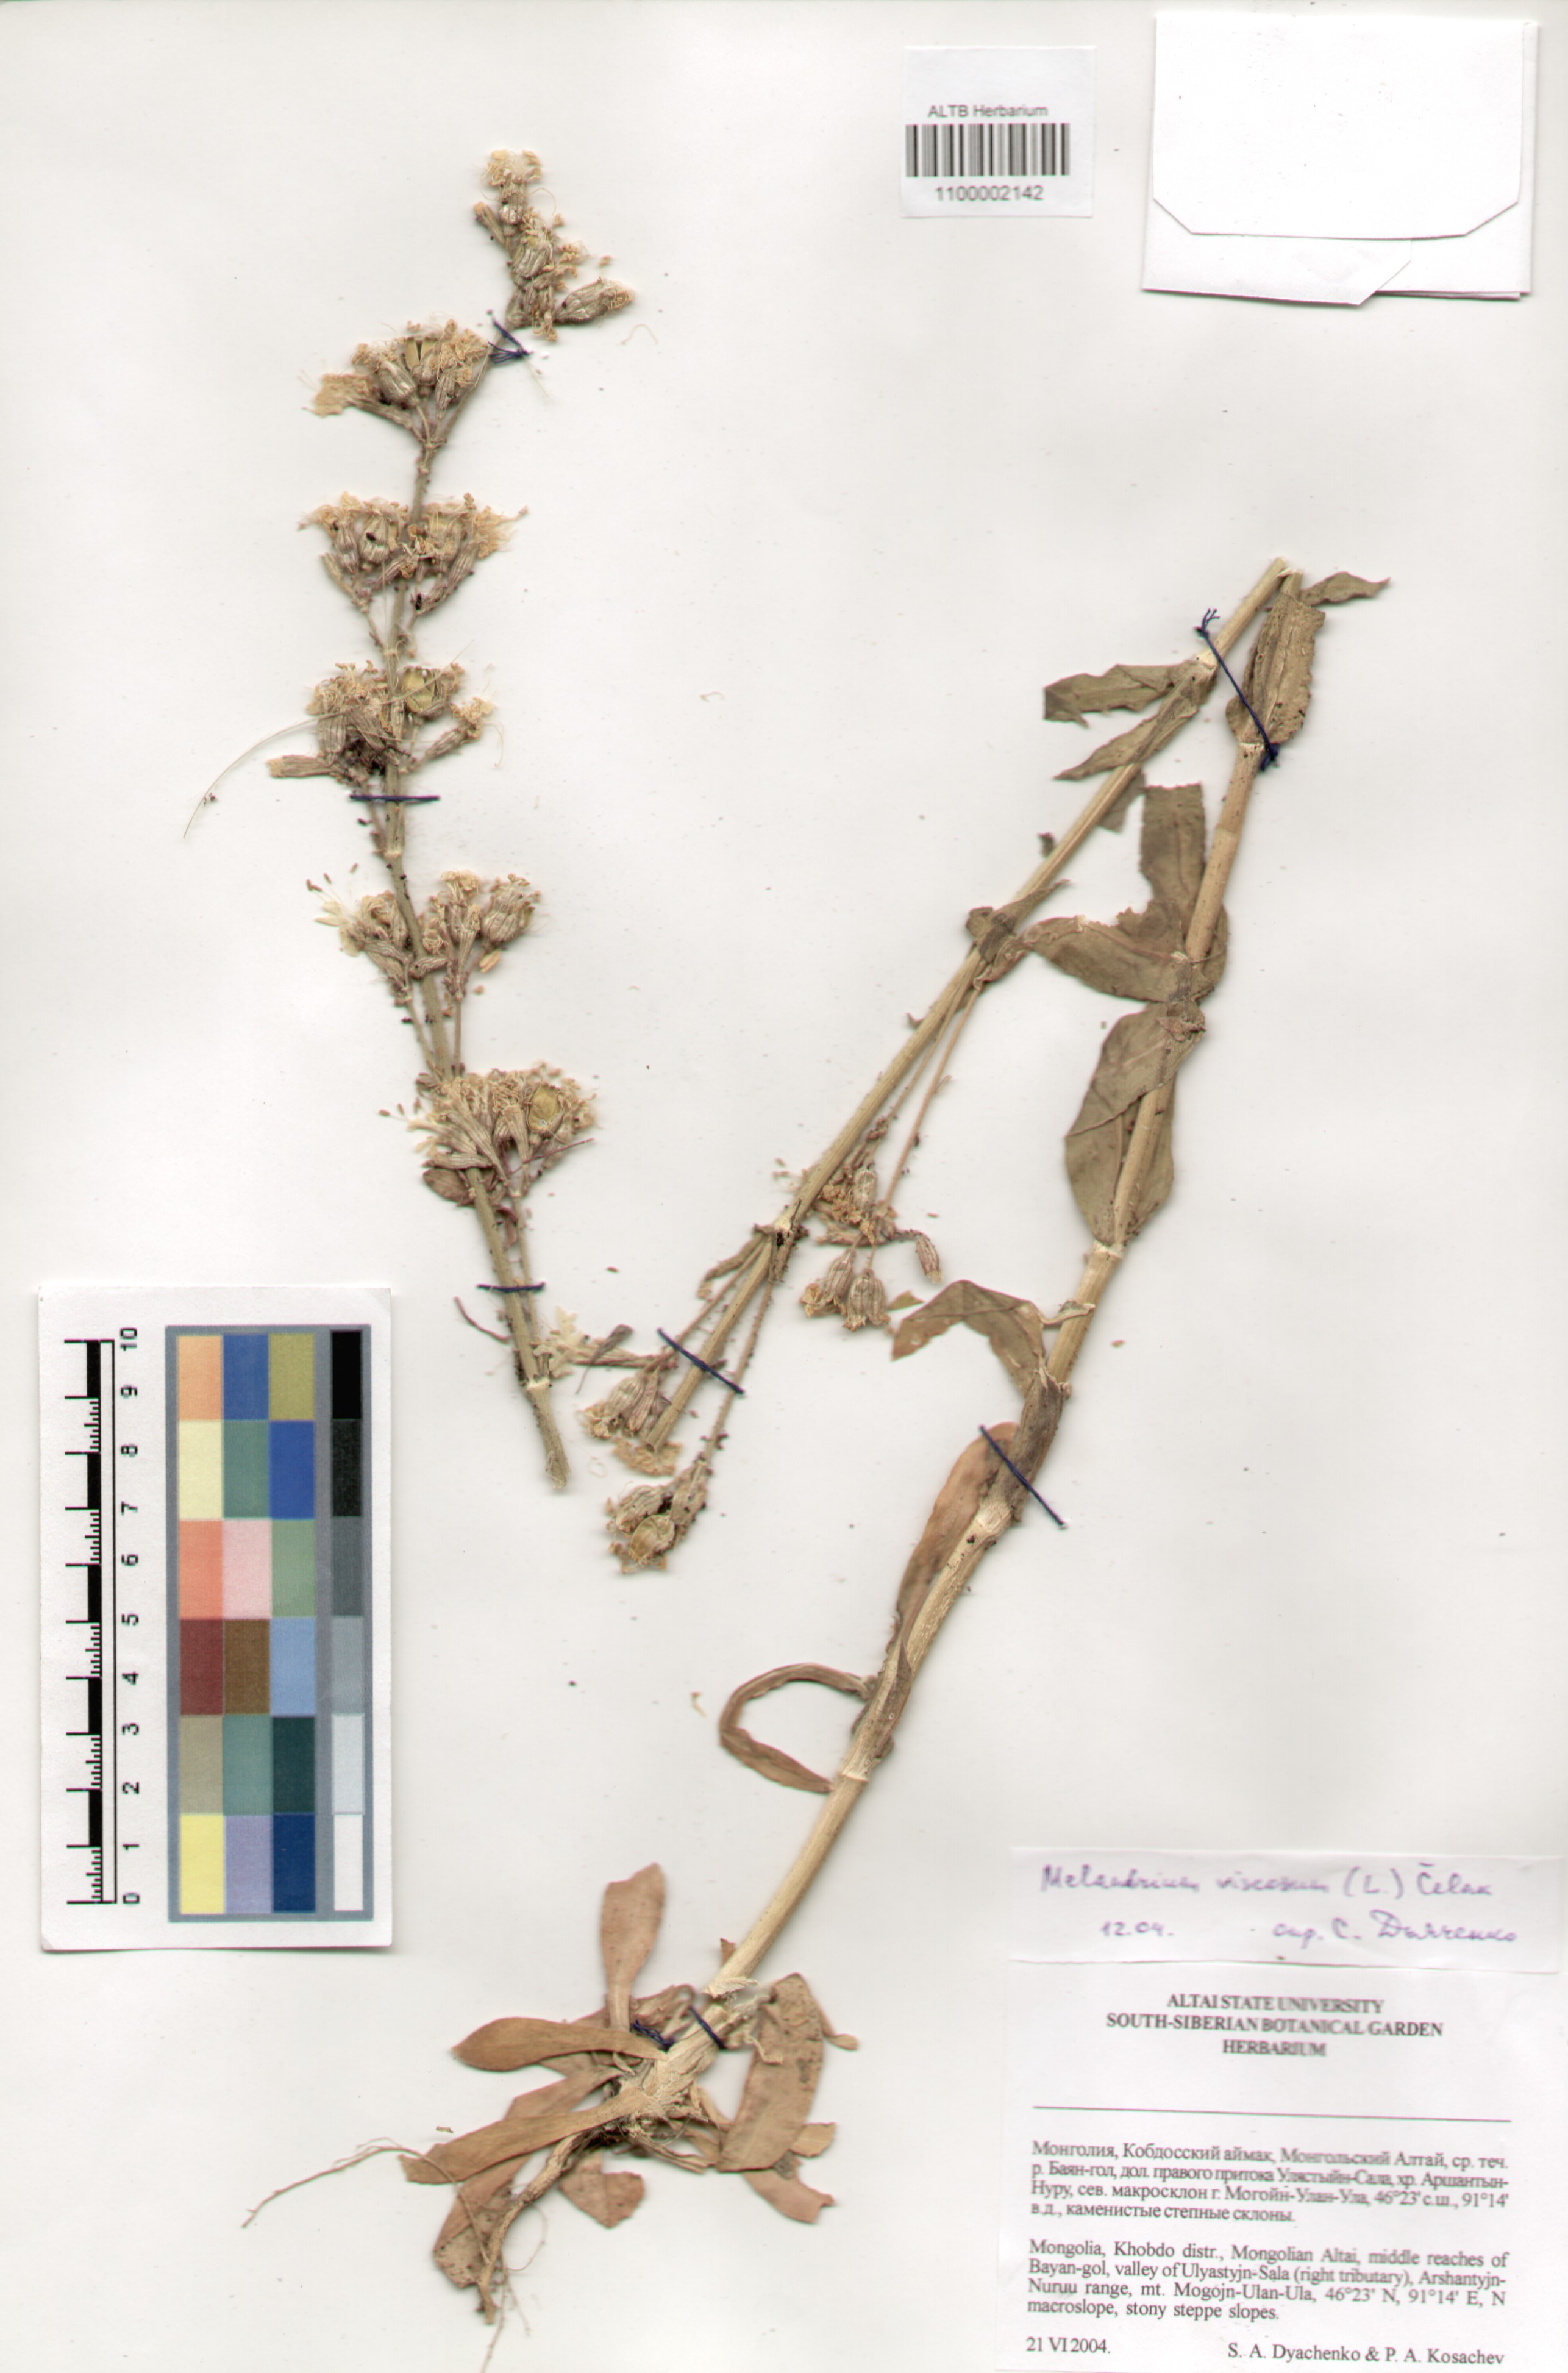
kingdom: Plantae
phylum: Tracheophyta
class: Magnoliopsida
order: Caryophyllales
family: Caryophyllaceae
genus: Silene
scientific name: Silene viscosa
